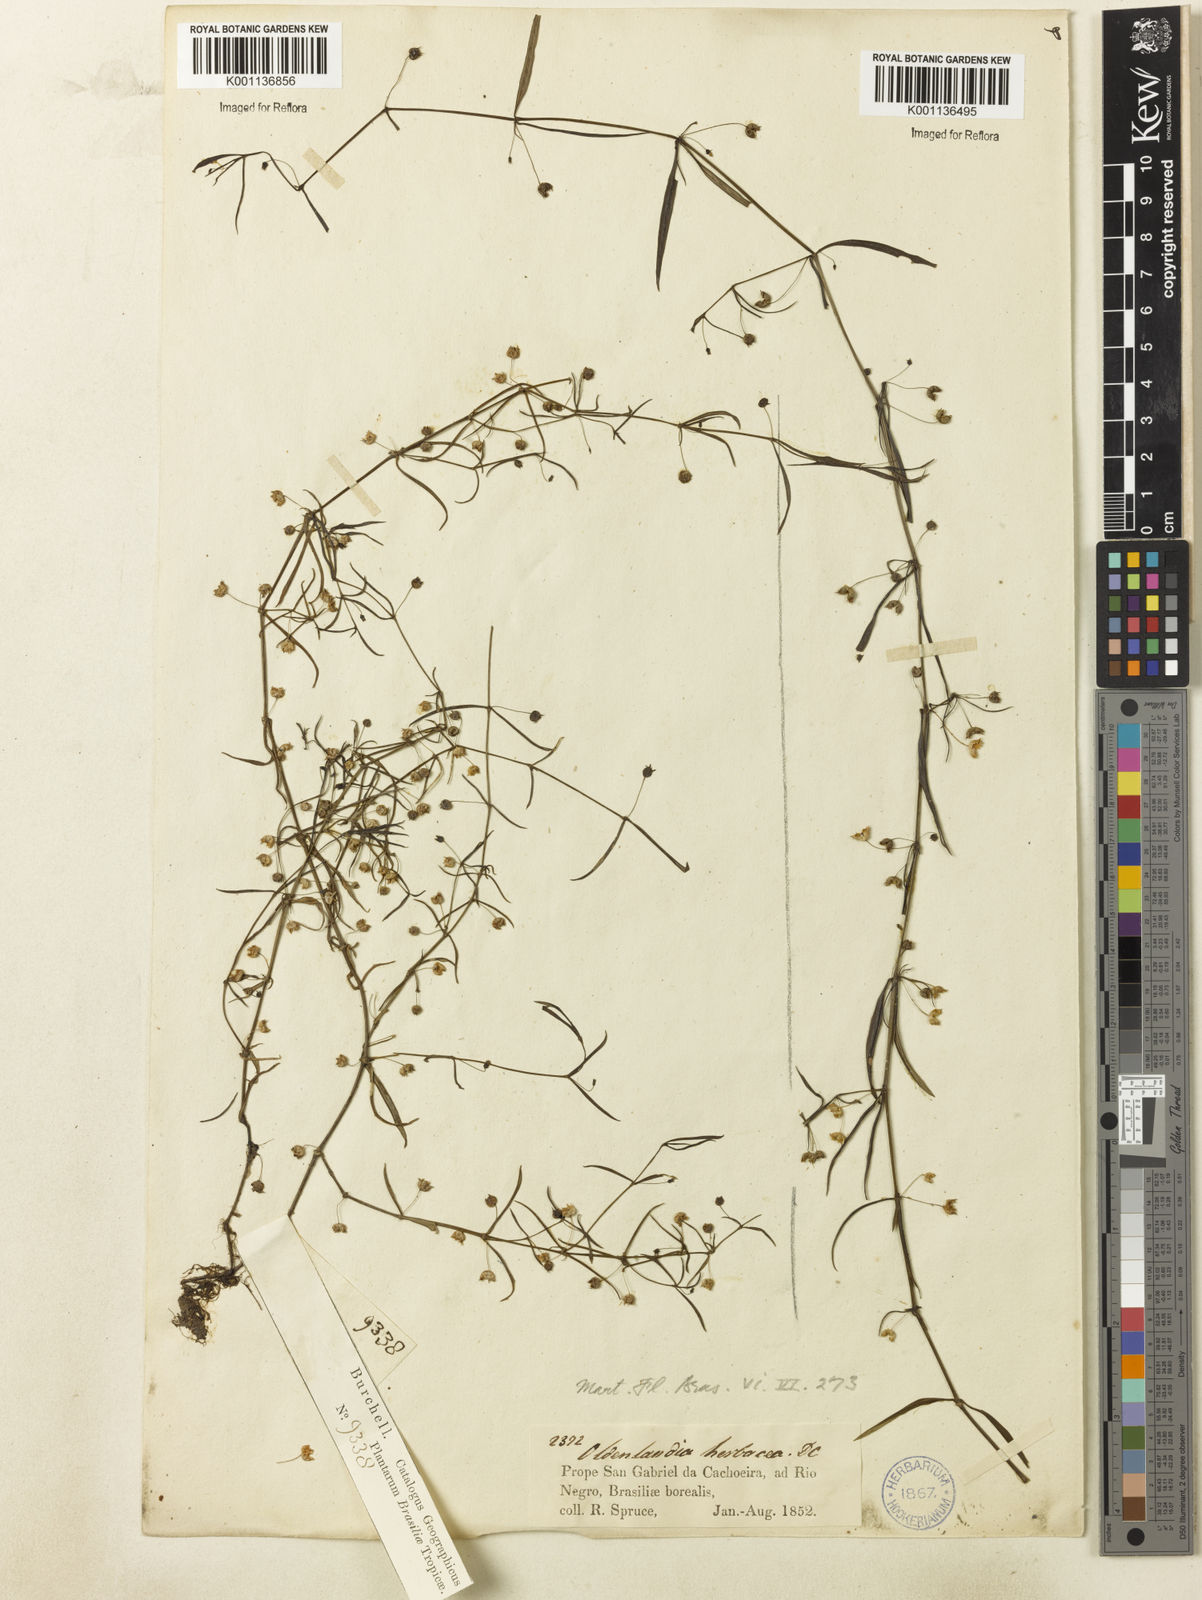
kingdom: Plantae
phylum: Tracheophyta
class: Magnoliopsida
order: Gentianales
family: Rubiaceae
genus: Oldenlandia
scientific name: Oldenlandia lancifolia
